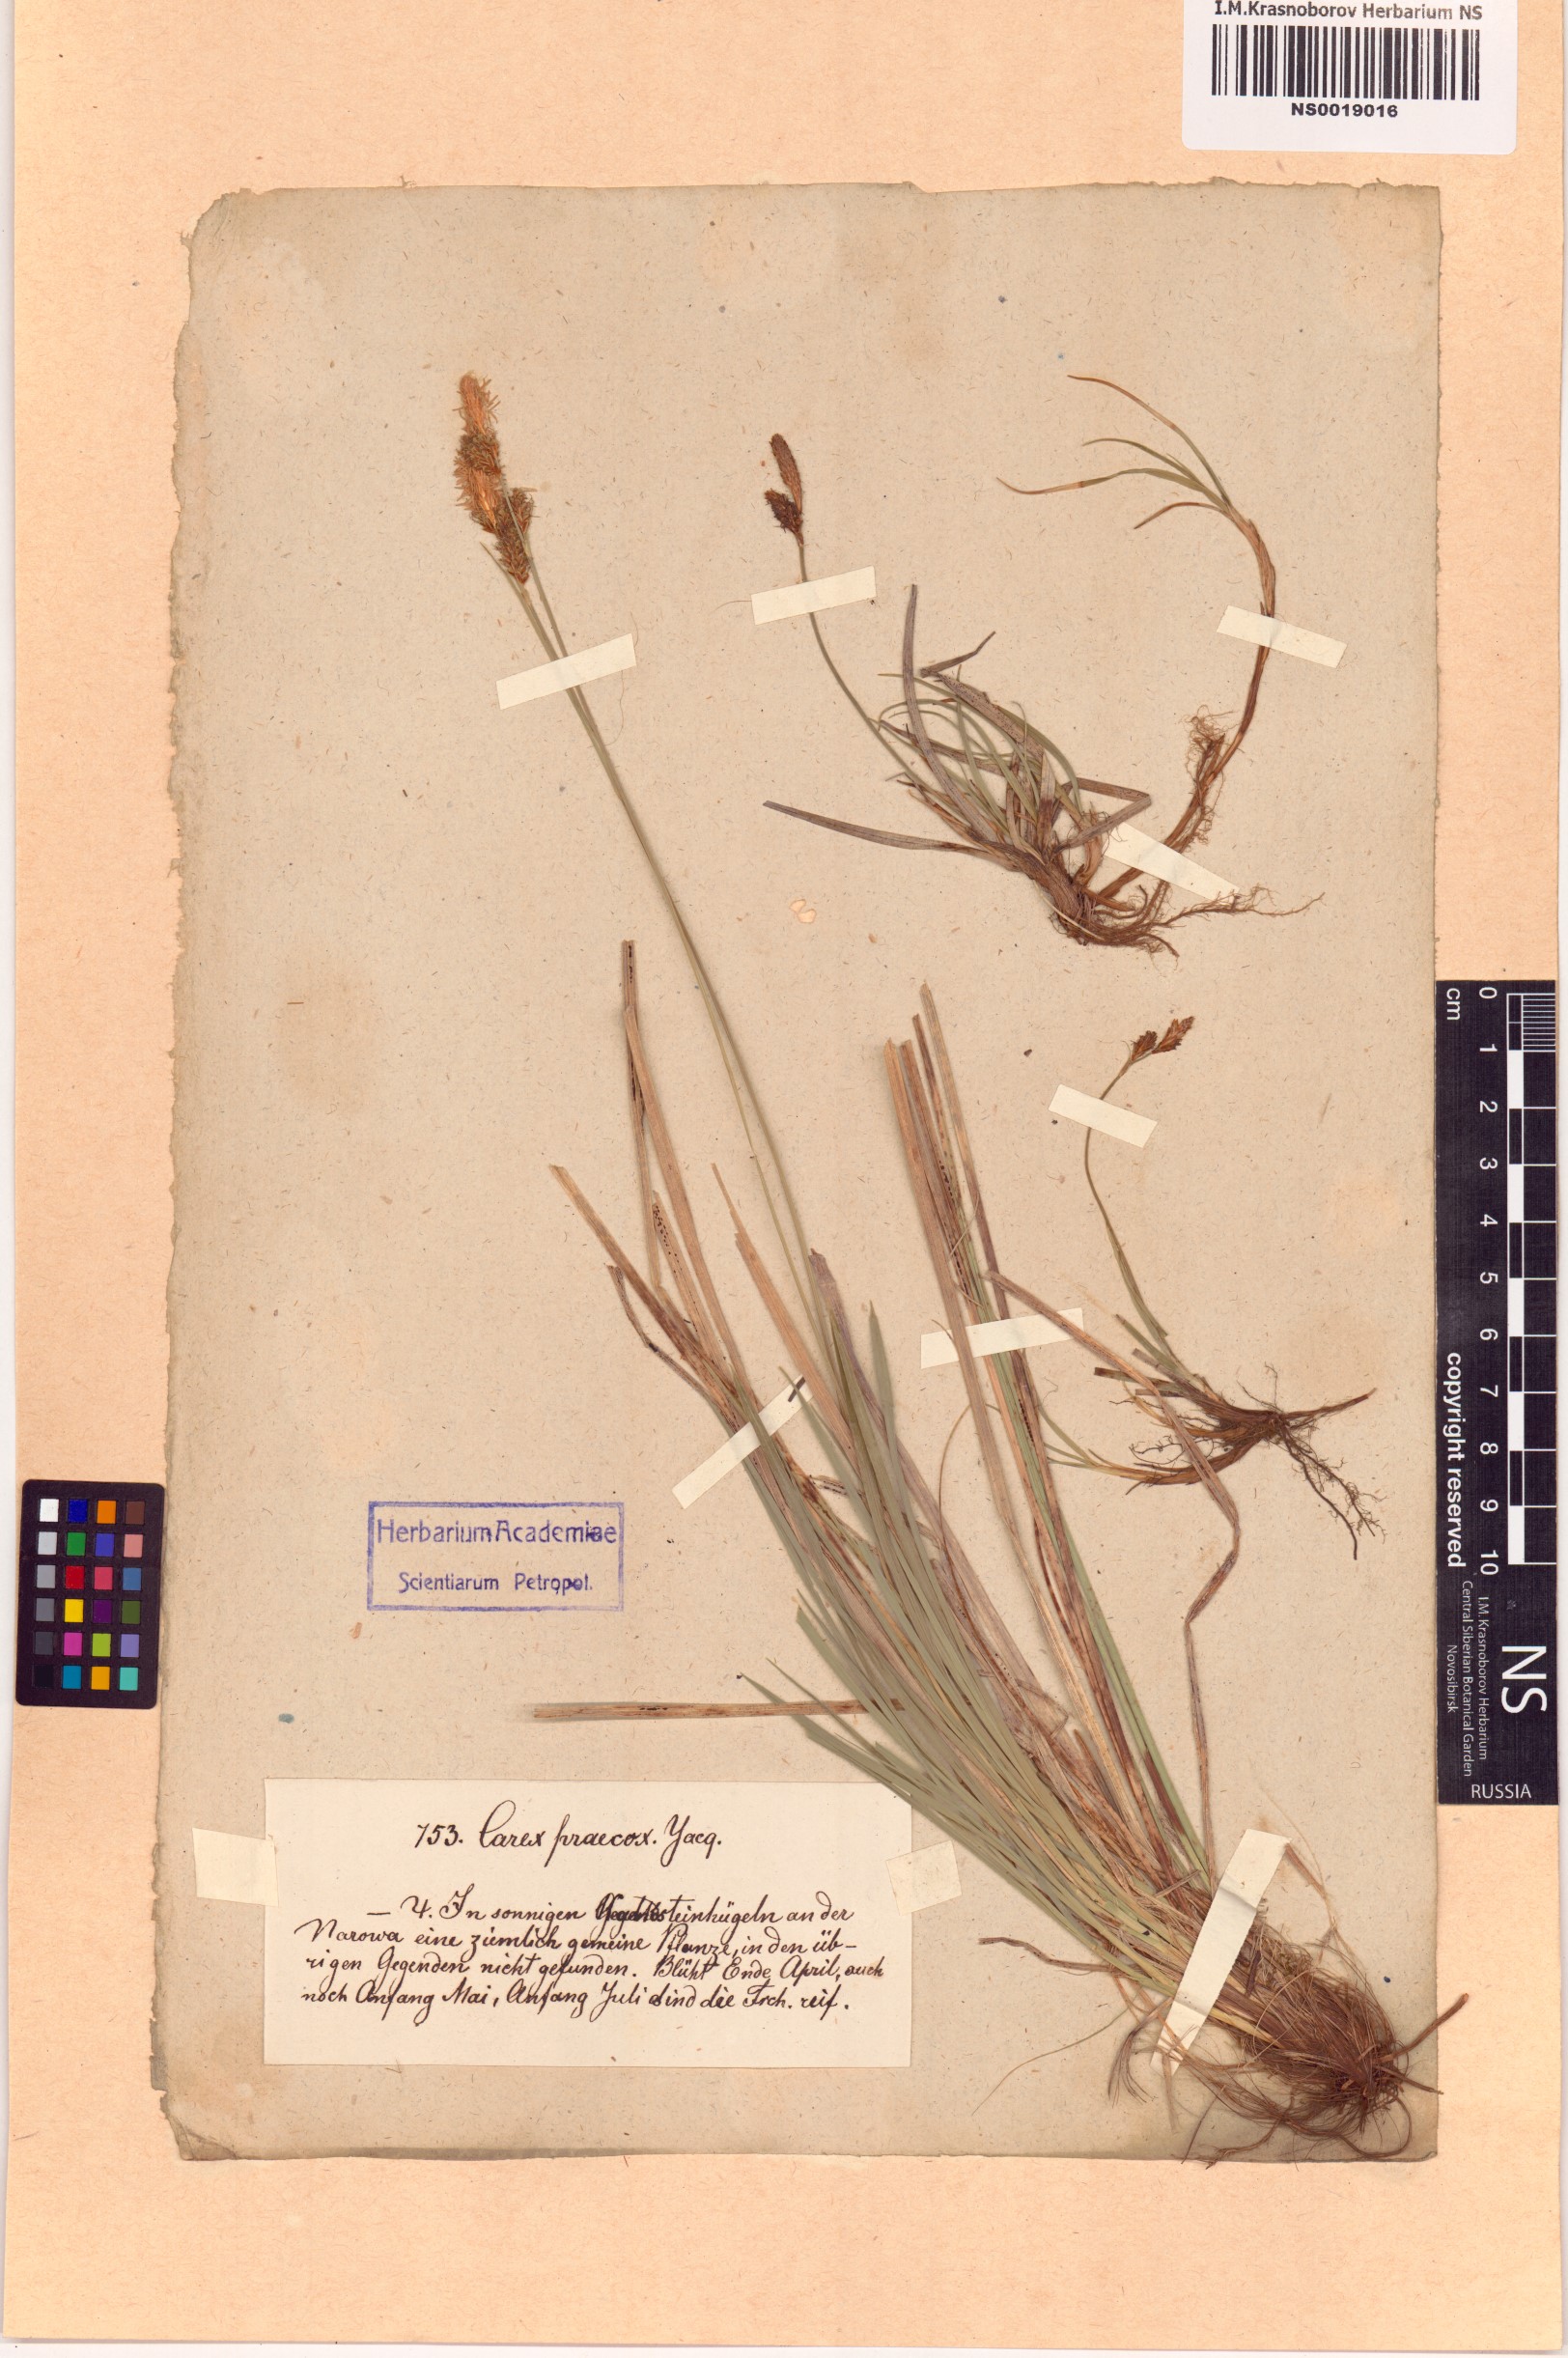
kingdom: Plantae
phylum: Tracheophyta
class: Liliopsida
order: Poales
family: Cyperaceae
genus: Carex
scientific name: Carex praecox
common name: Early sedge
